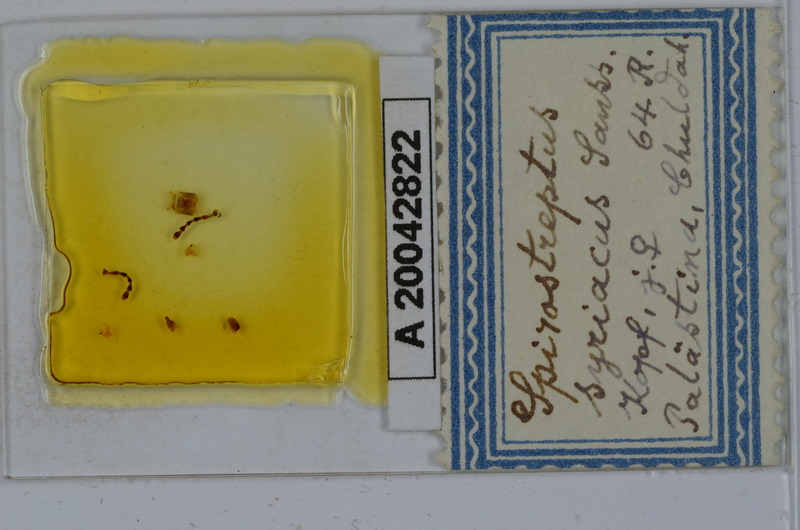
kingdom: Animalia
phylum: Arthropoda
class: Diplopoda
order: Spirostreptida
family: Spirostreptidae
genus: Archispirostreptus
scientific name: Archispirostreptus syriacus
